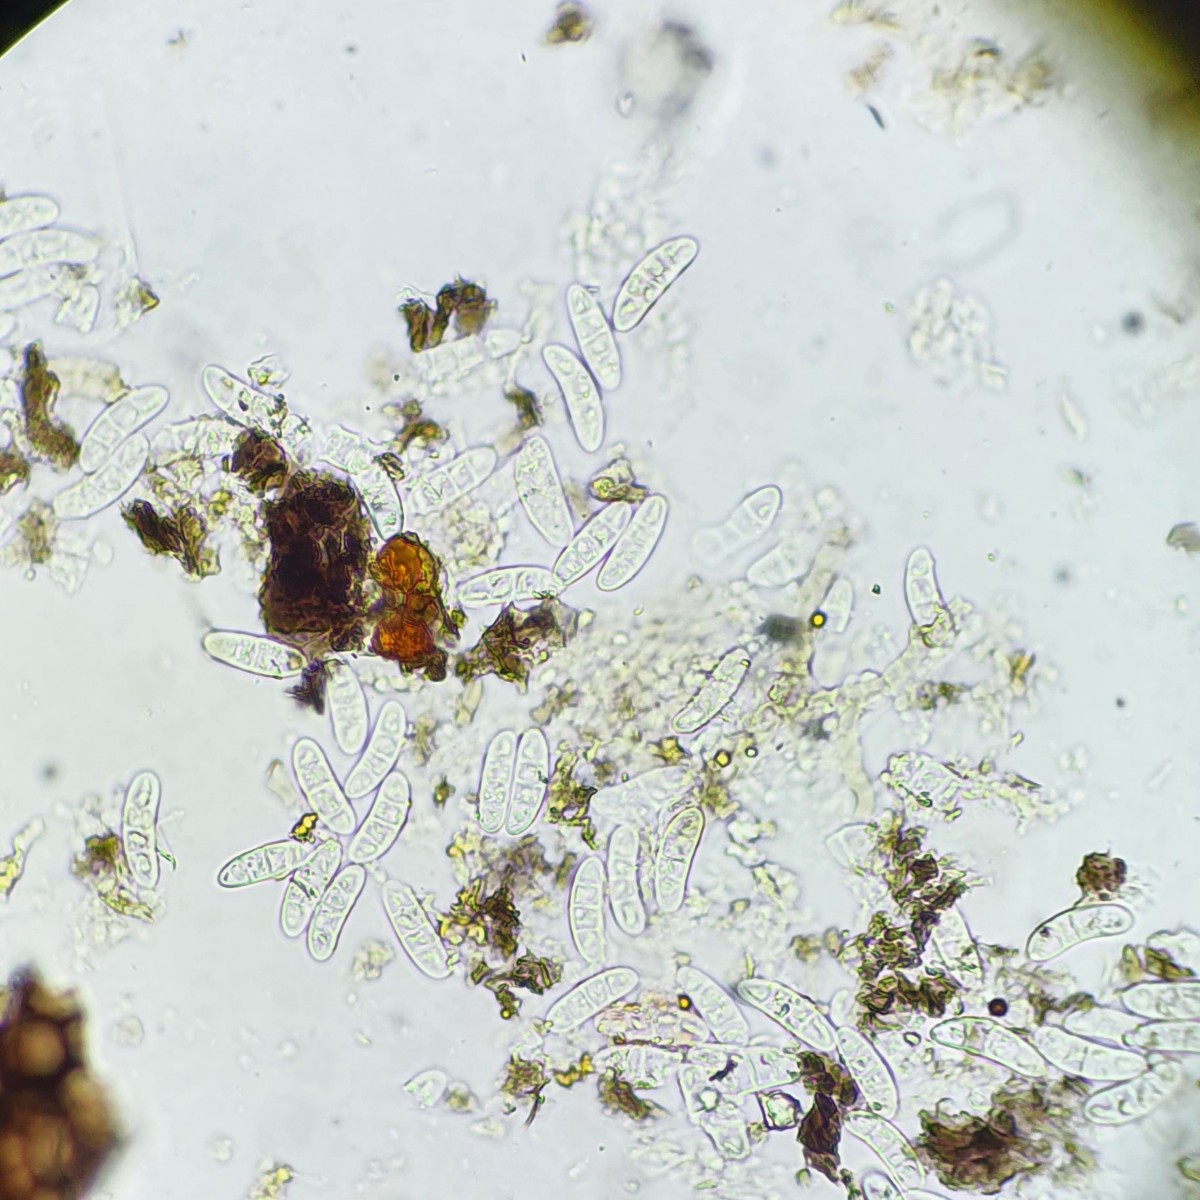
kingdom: Fungi
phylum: Ascomycota
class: Sordariomycetes
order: Diaporthales
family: Gnomoniaceae
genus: Phragmoporthe
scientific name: Phragmoporthe conformis
